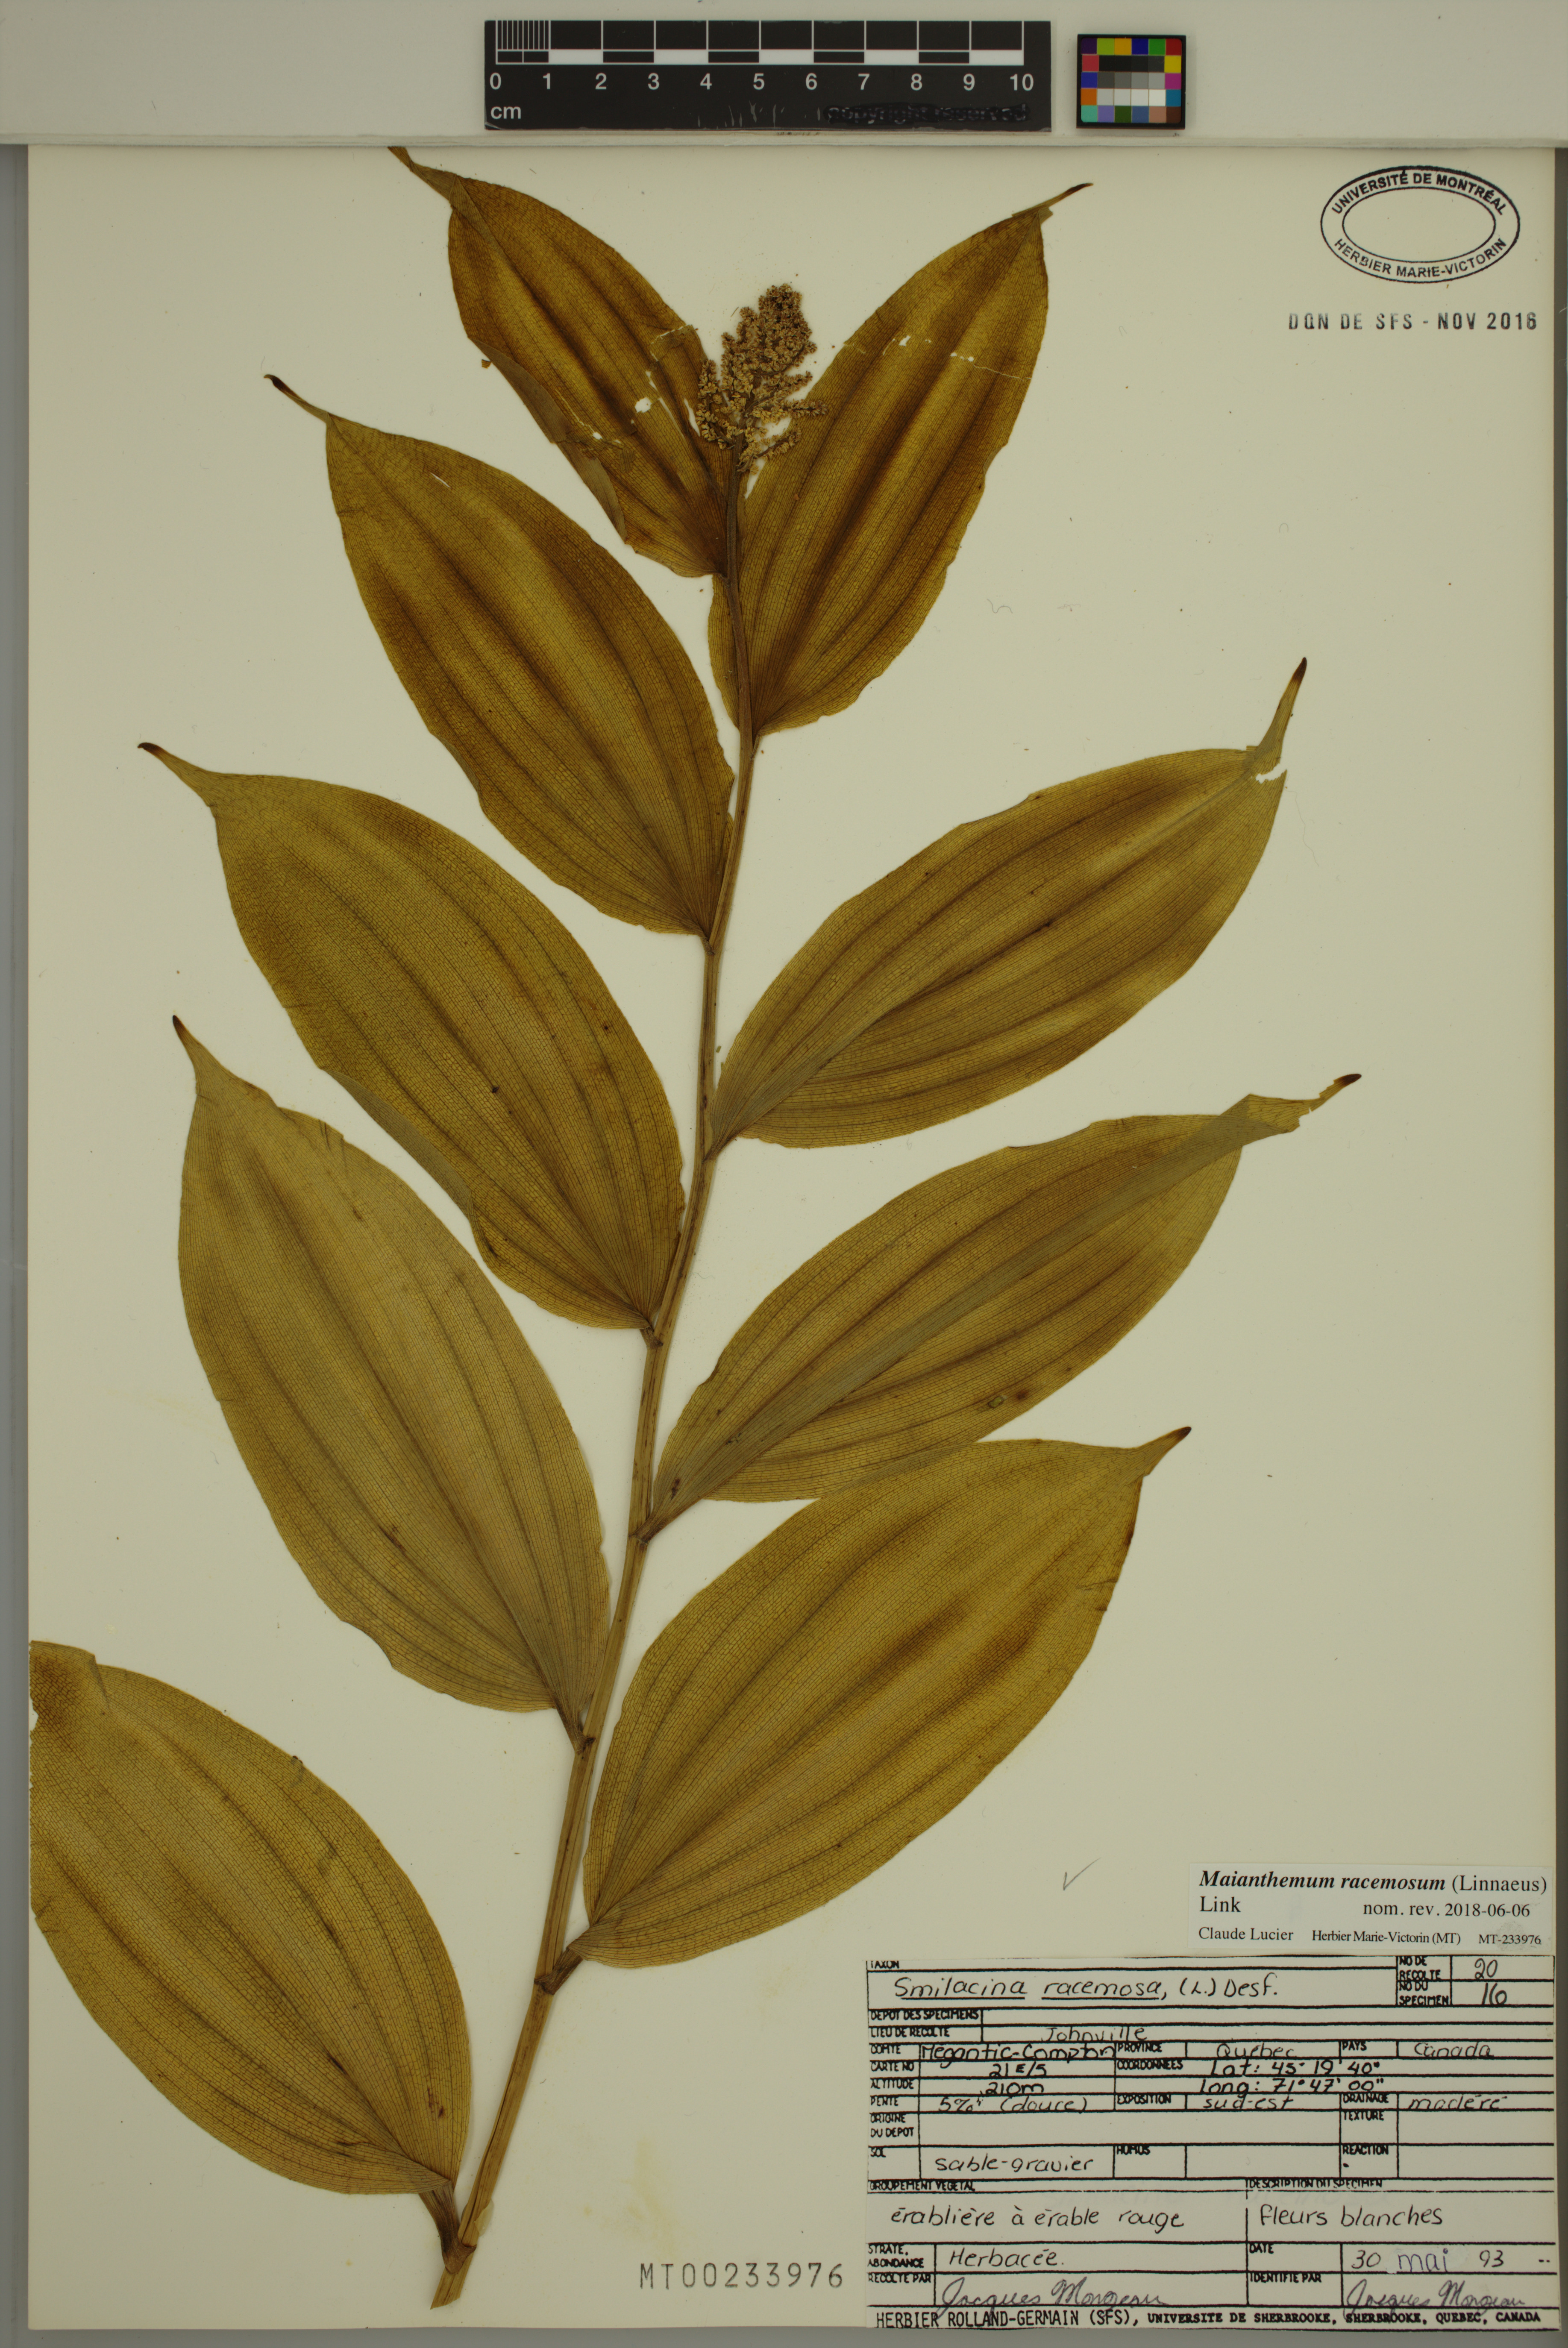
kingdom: Plantae
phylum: Tracheophyta
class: Liliopsida
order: Asparagales
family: Asparagaceae
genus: Maianthemum
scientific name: Maianthemum racemosum
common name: False spikenard
